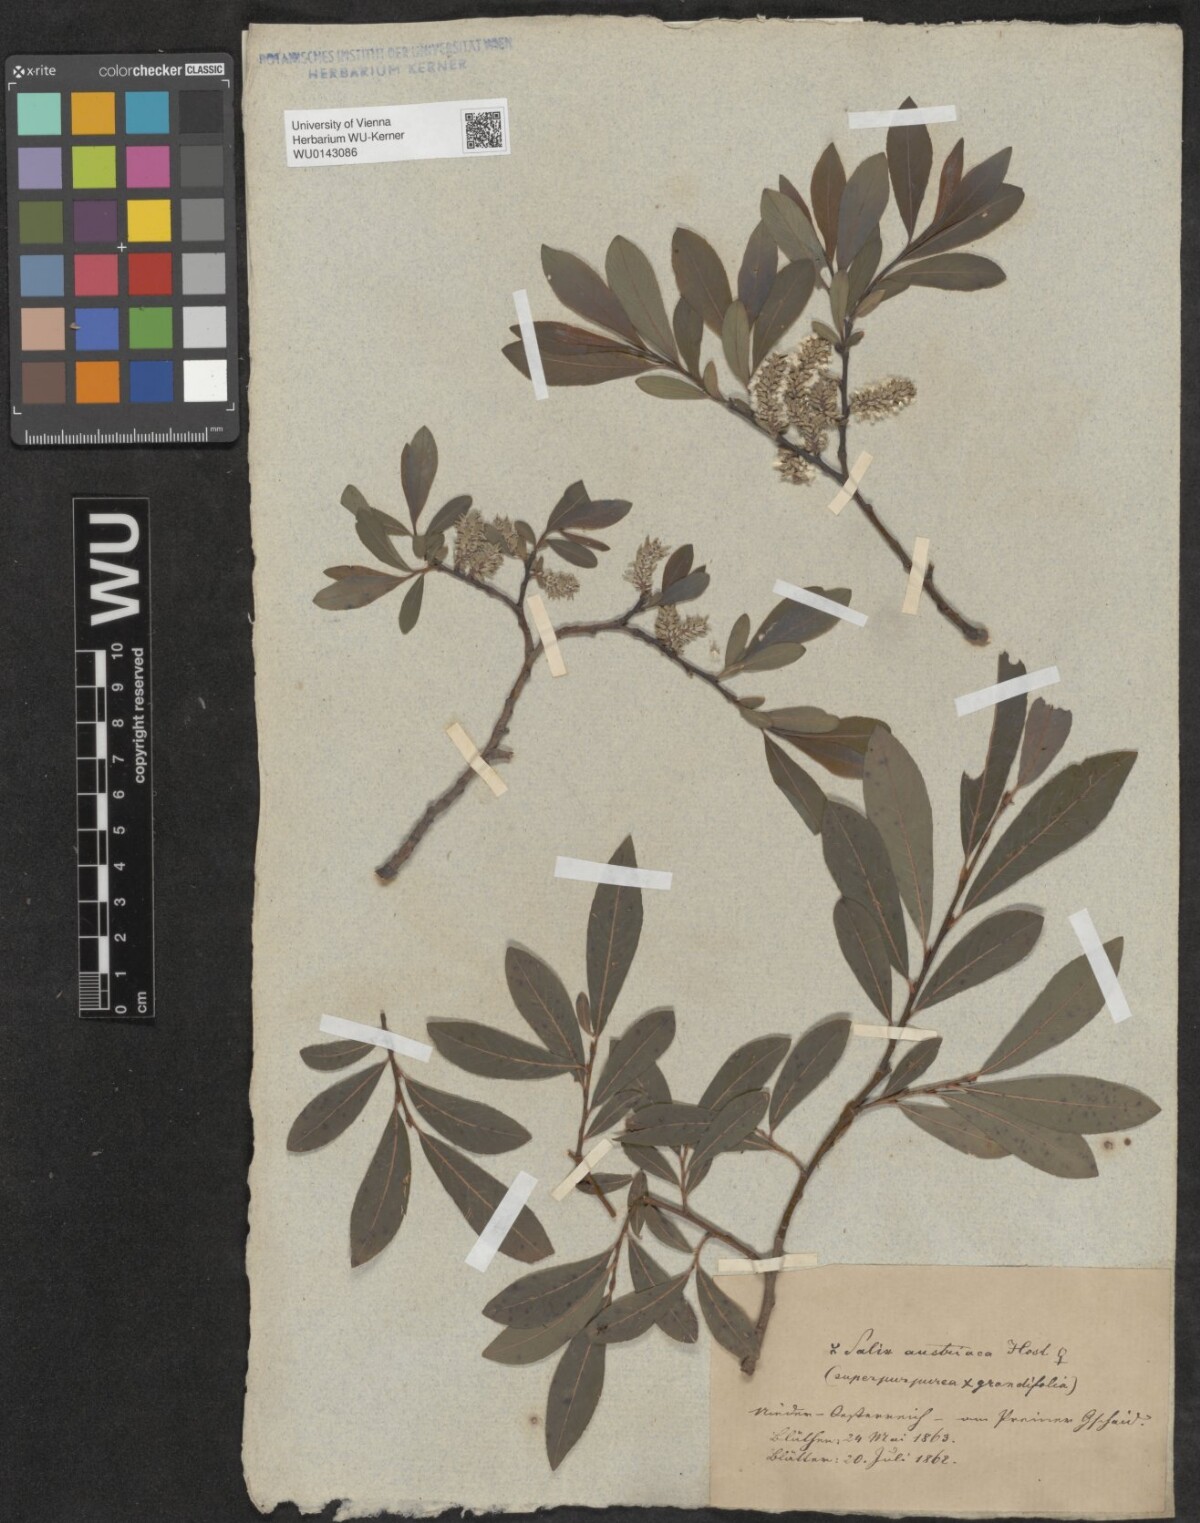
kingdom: Plantae
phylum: Tracheophyta
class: Magnoliopsida
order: Malpighiales
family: Salicaceae
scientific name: Salicaceae
